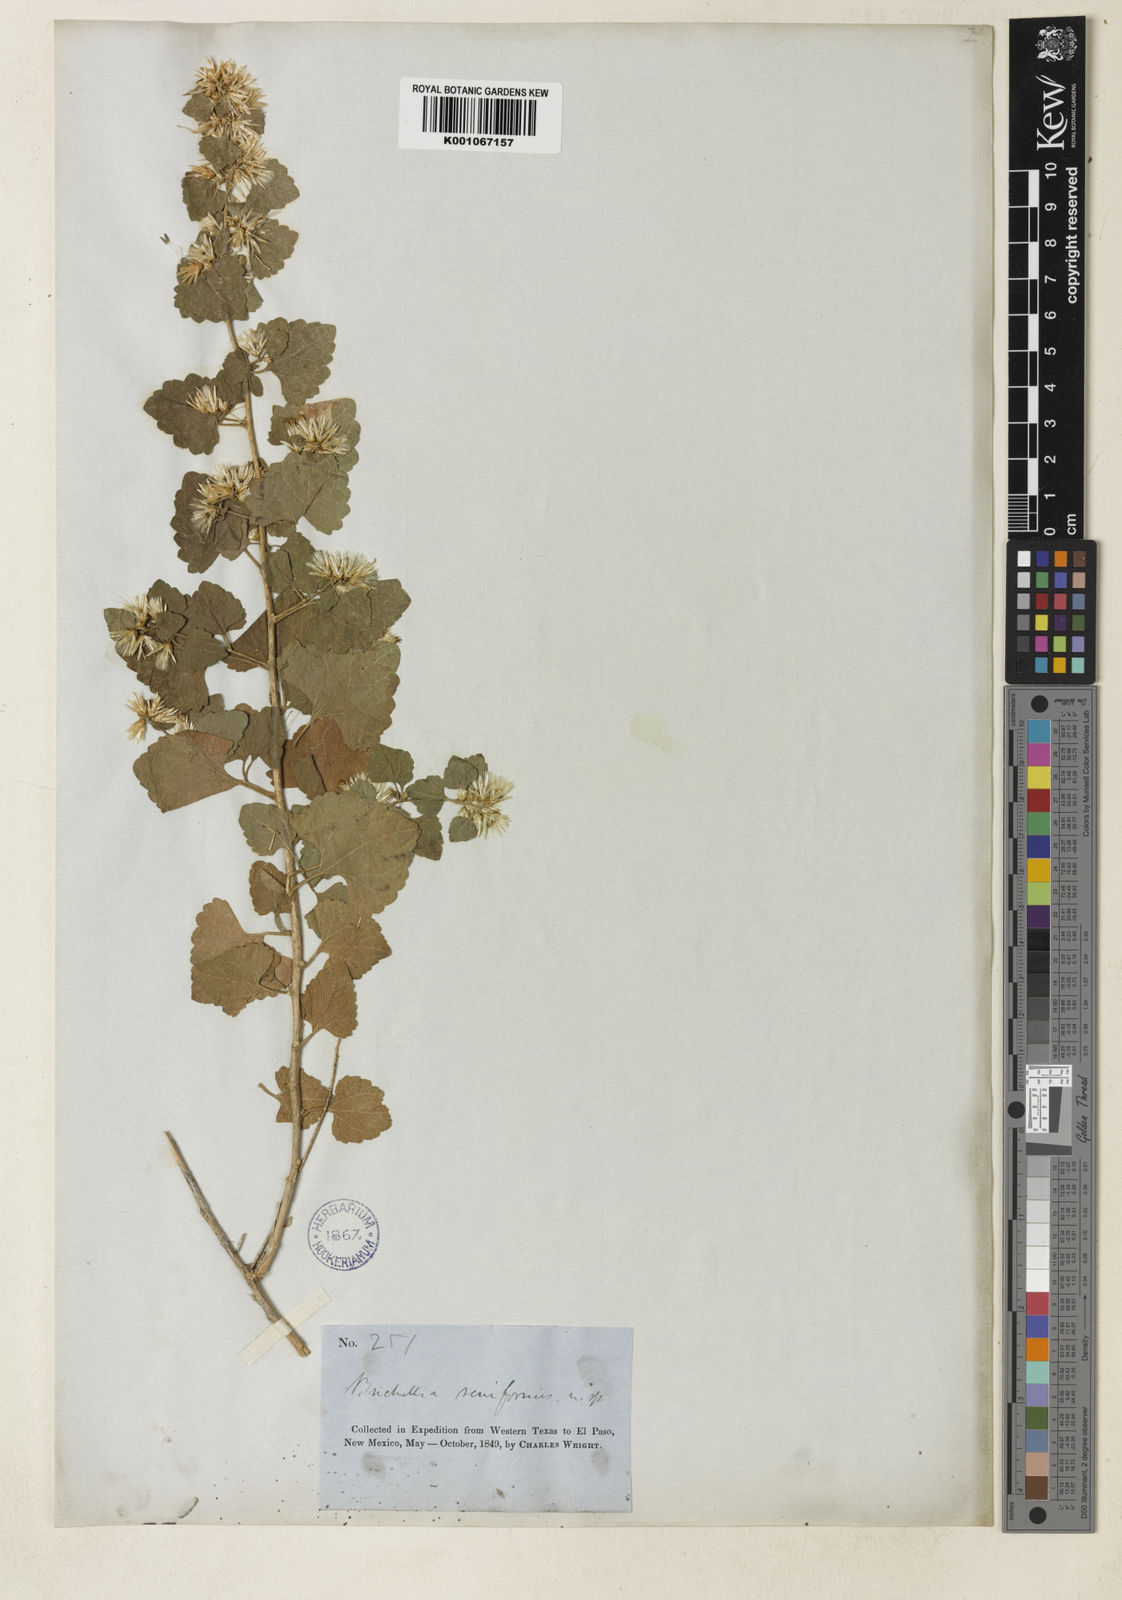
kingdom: Plantae
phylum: Tracheophyta
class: Magnoliopsida
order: Asterales
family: Asteraceae
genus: Brickellia
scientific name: Brickellia californica
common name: California brickellbush
